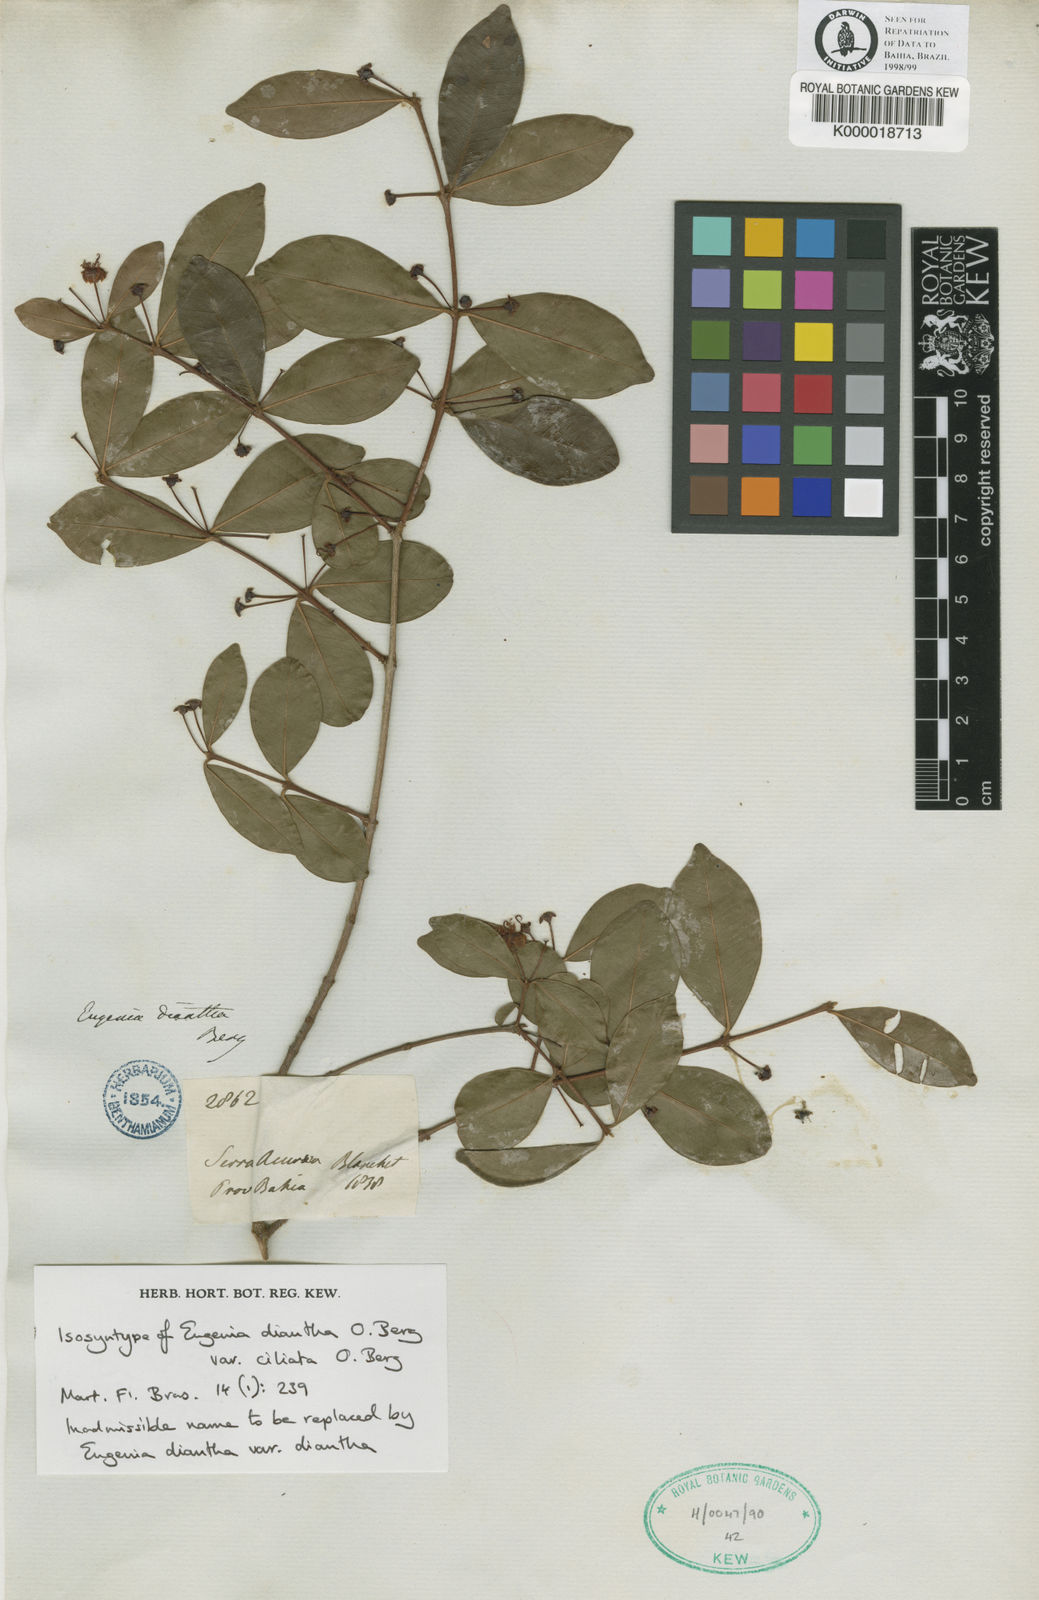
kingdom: Plantae
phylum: Tracheophyta
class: Magnoliopsida
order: Myrtales
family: Myrtaceae
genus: Eugenia
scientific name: Eugenia punicifolia
